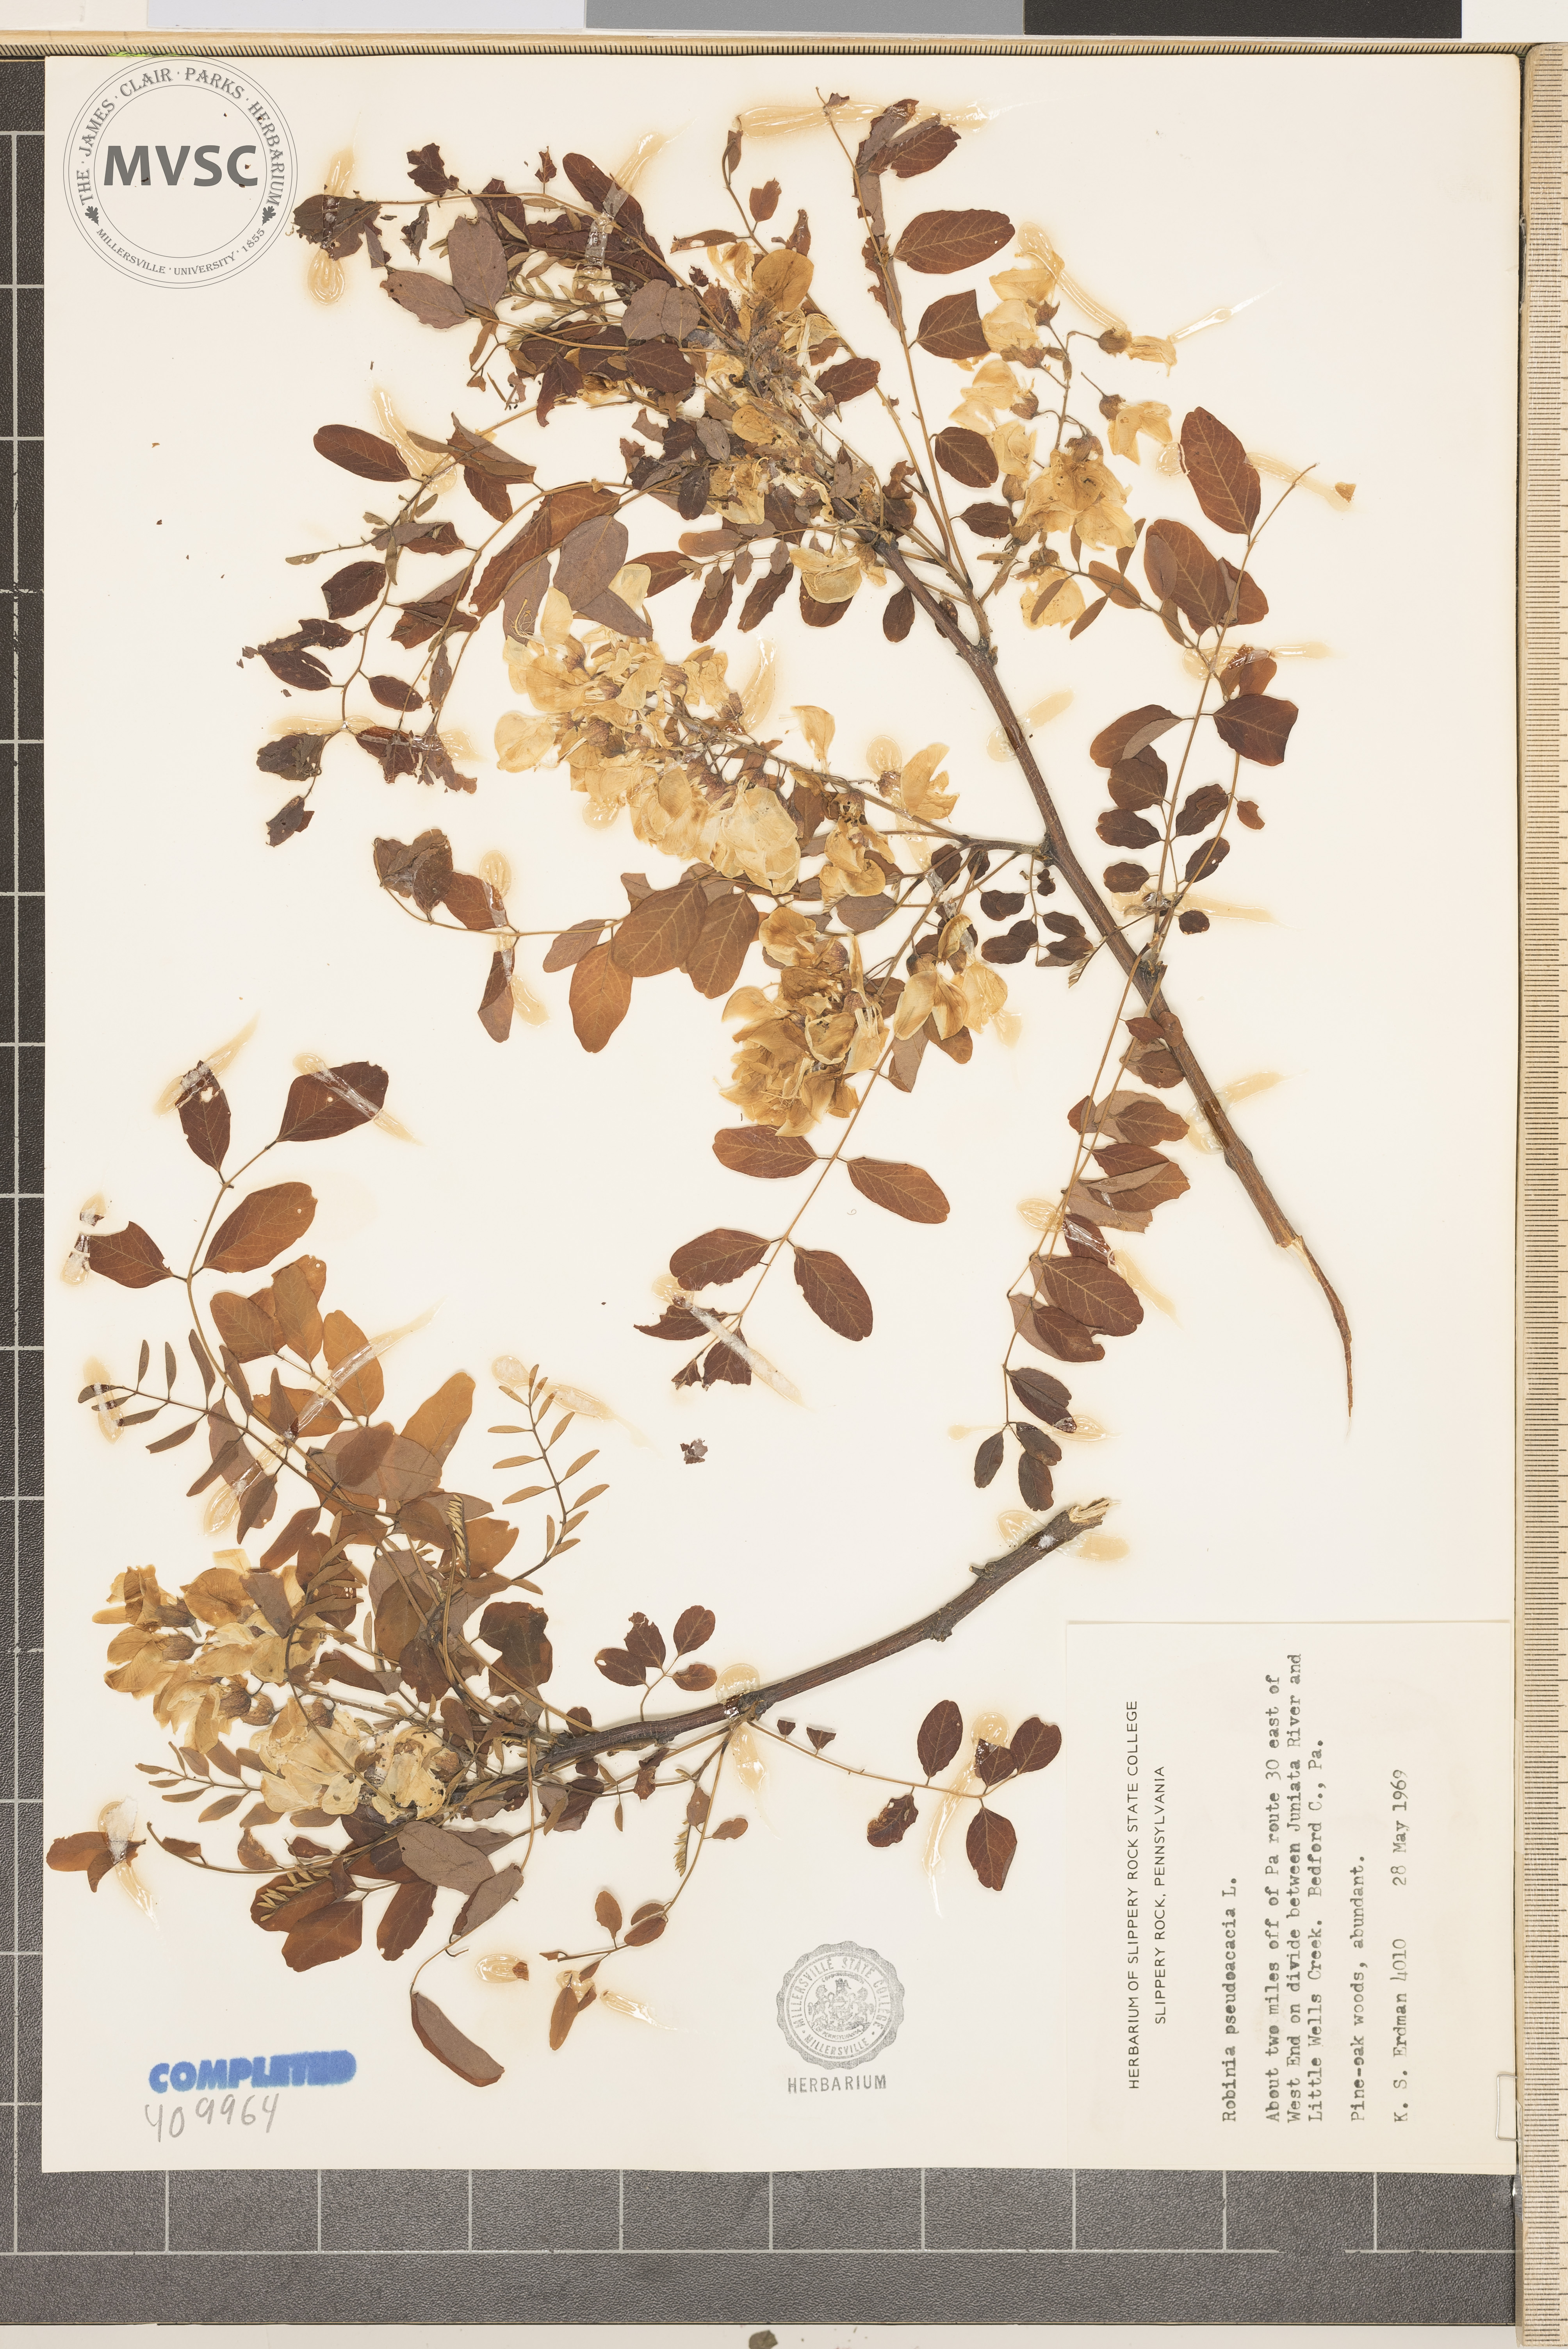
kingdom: Plantae
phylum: Tracheophyta
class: Magnoliopsida
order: Fabales
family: Fabaceae
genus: Robinia
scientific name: Robinia pseudoacacia
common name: Black locust
